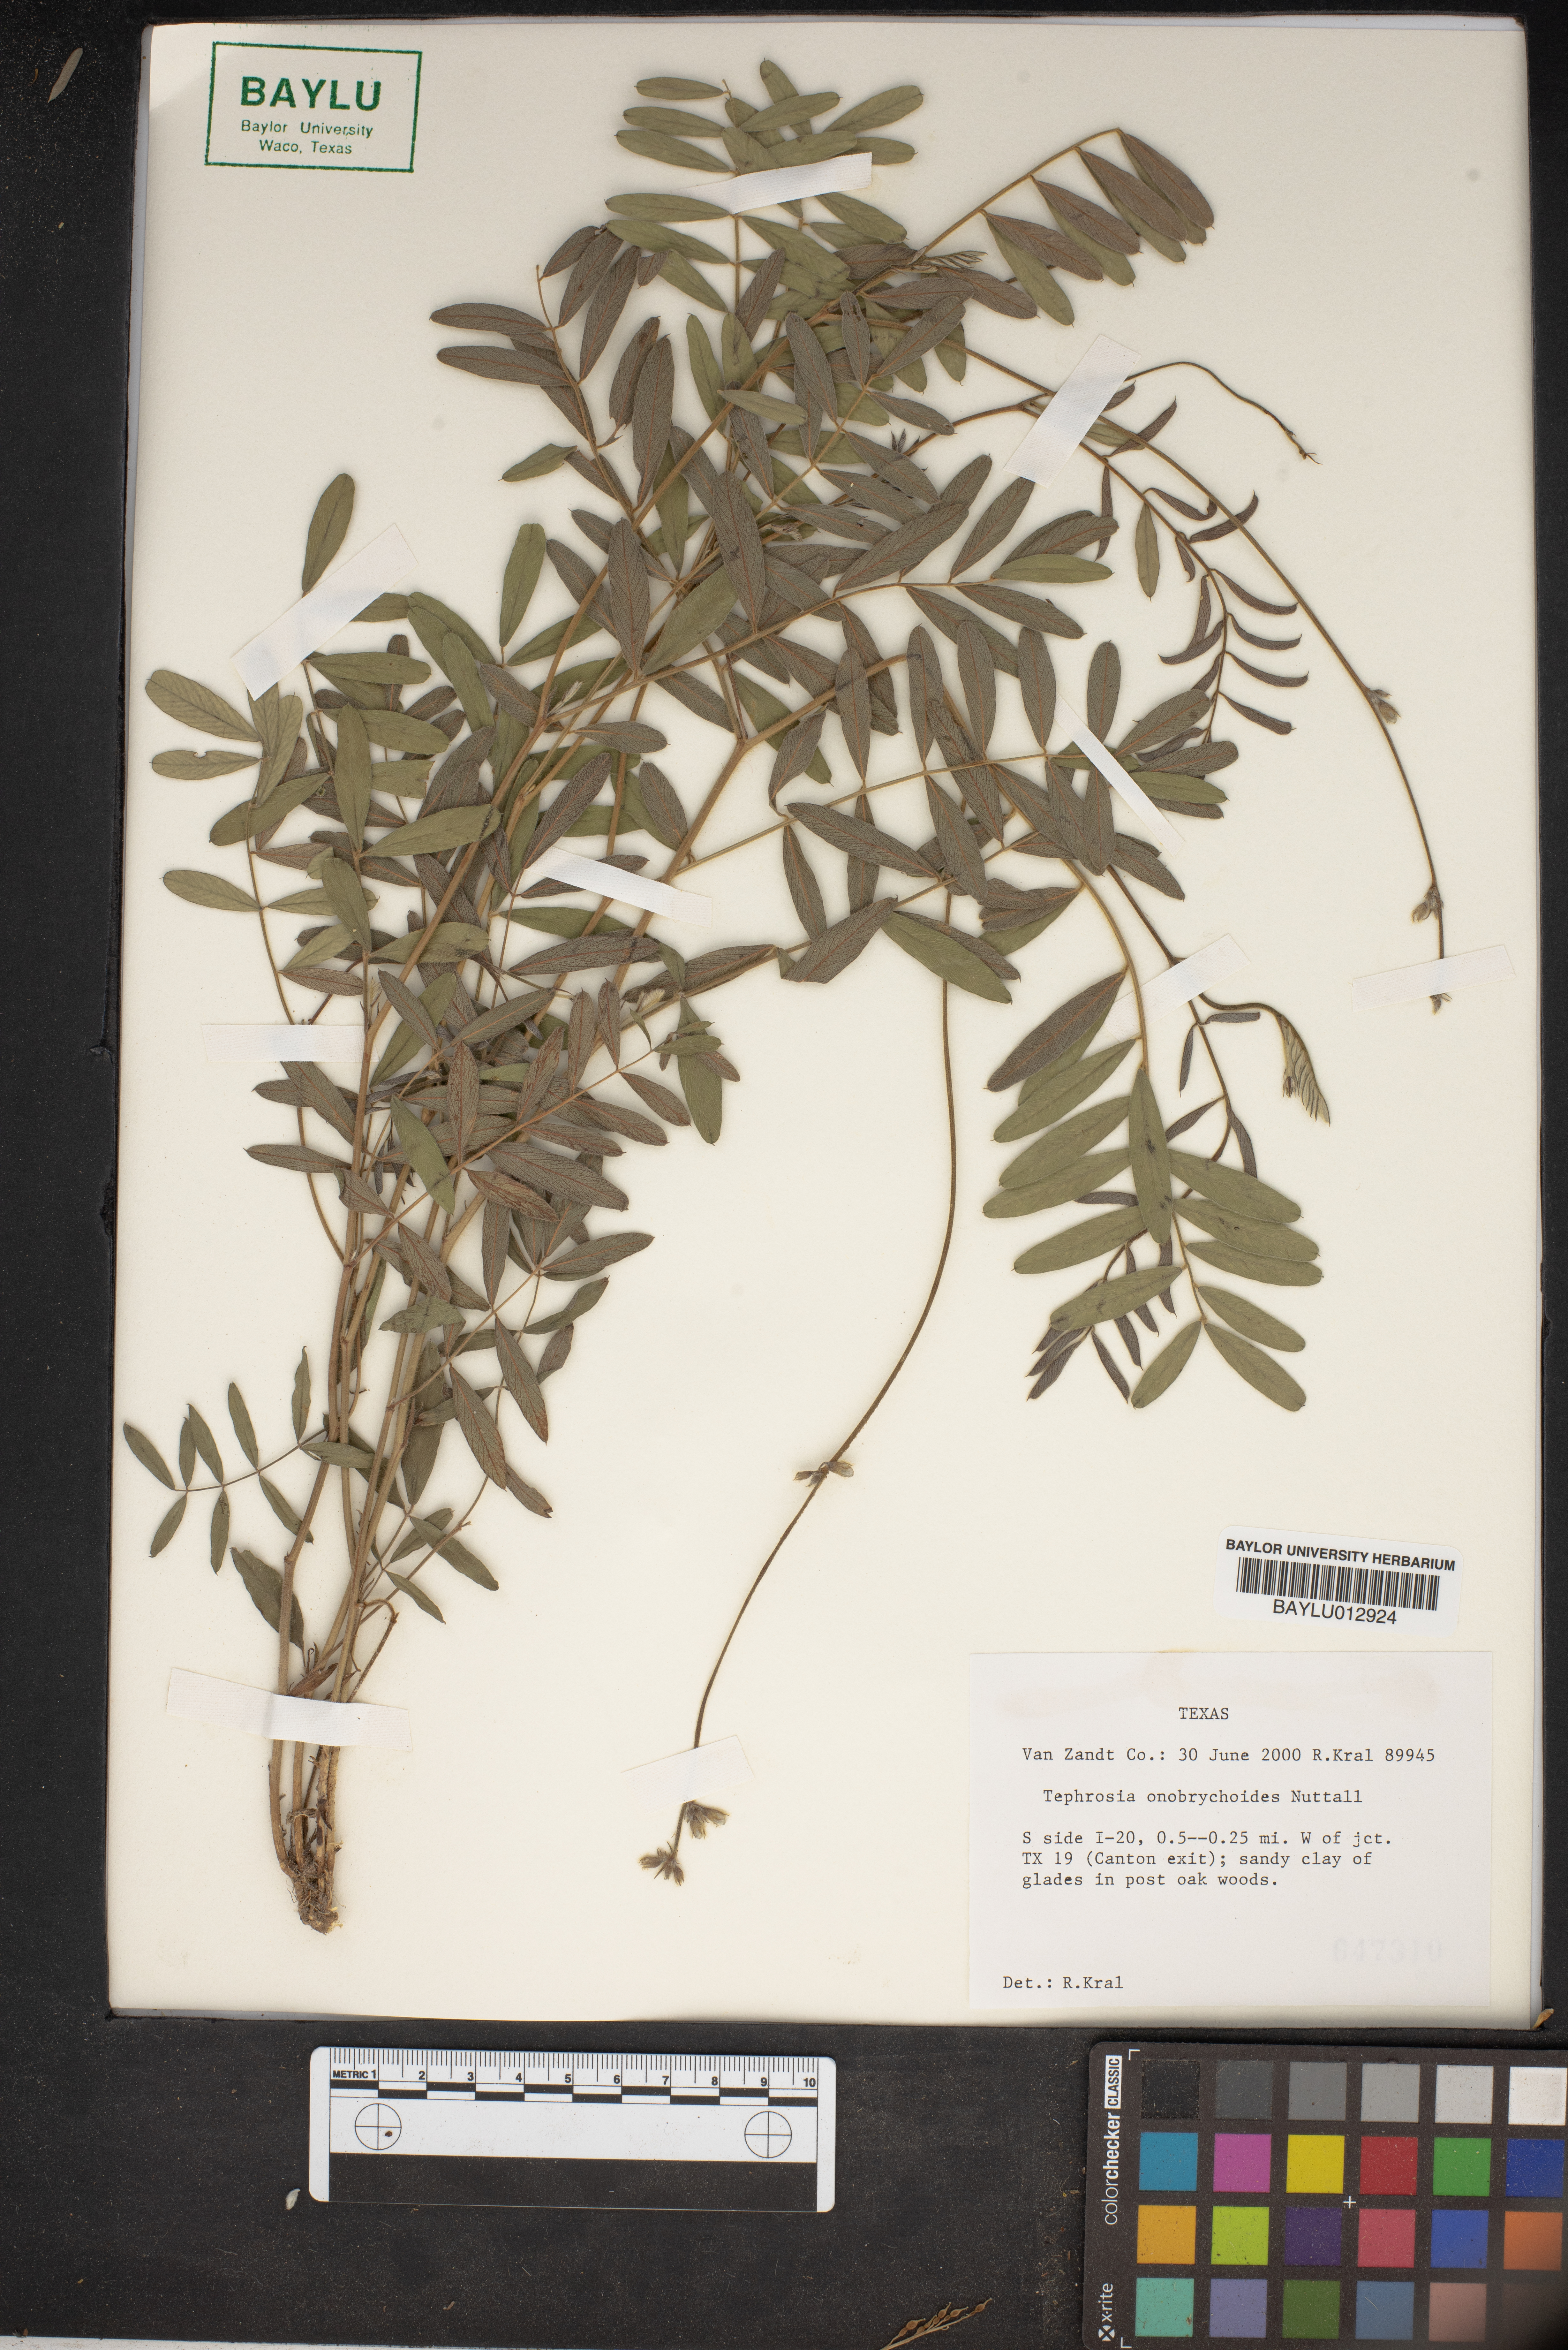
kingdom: Plantae
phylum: Tracheophyta
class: Magnoliopsida
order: Fabales
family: Fabaceae
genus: Tephrosia
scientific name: Tephrosia onobrychoides
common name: Multi-bloom hoary-pea
